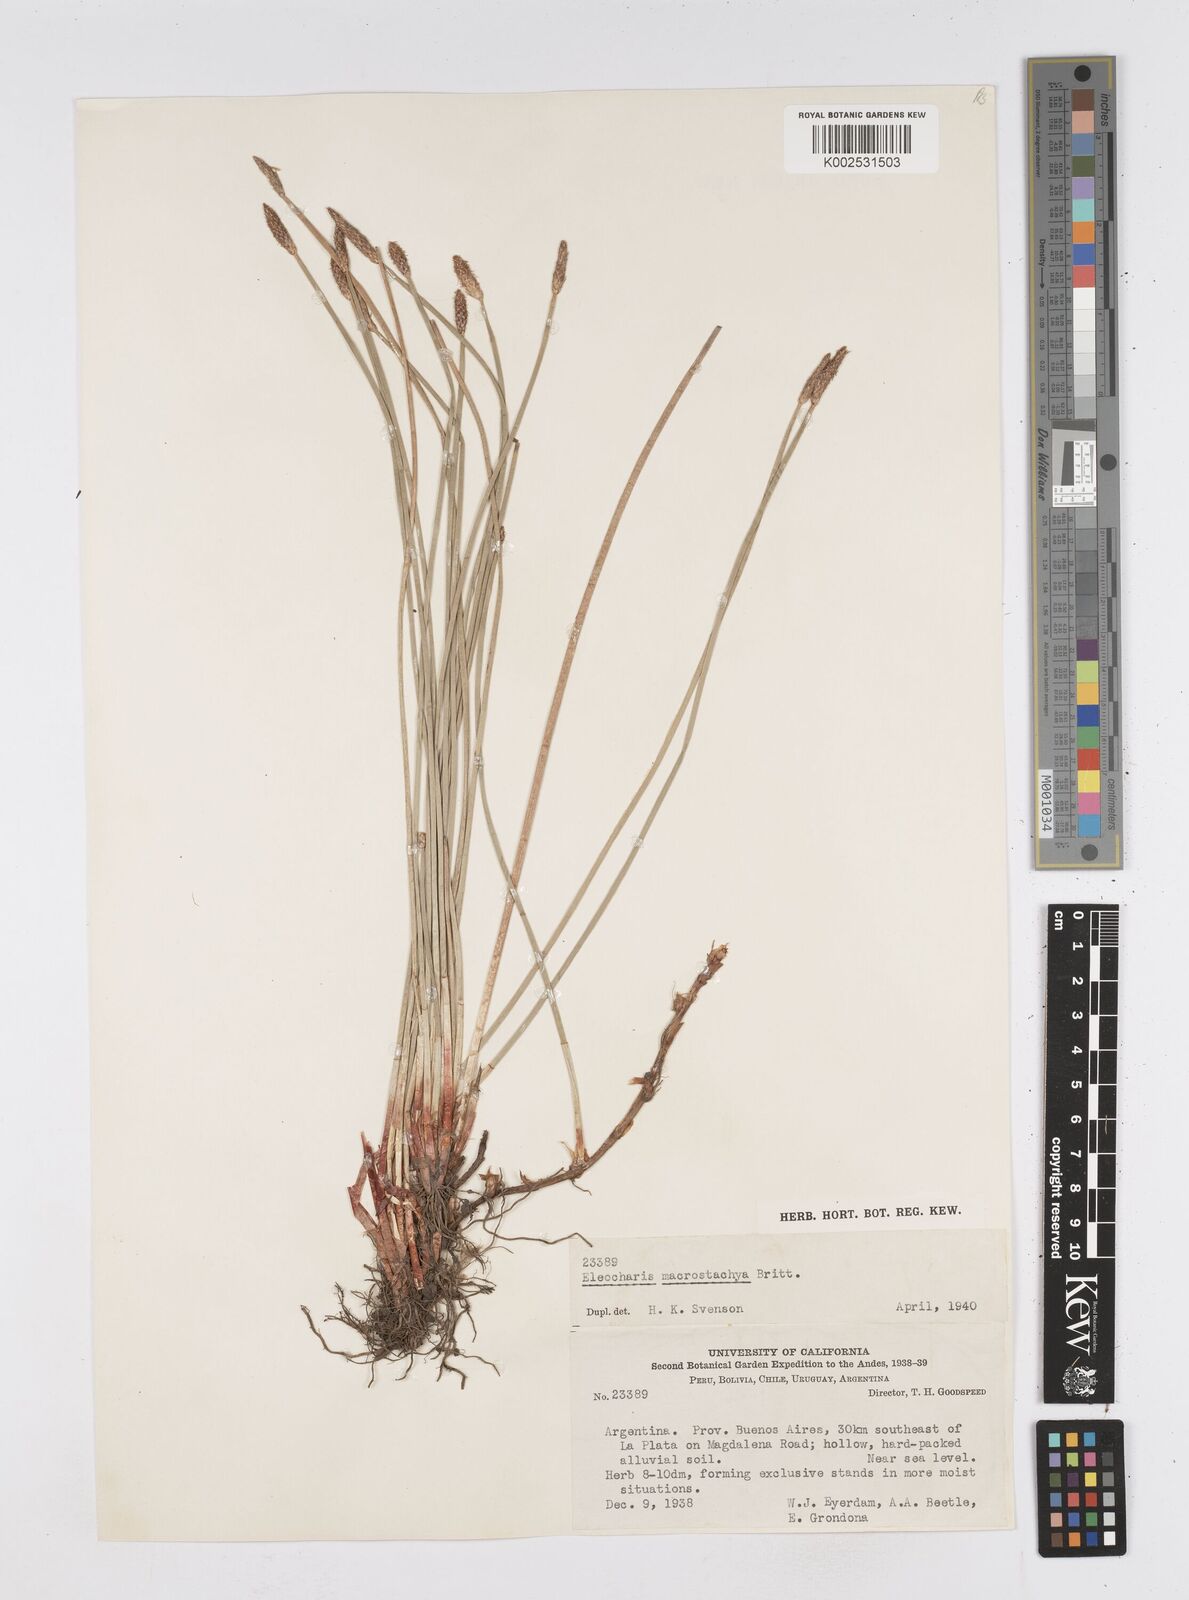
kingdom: Plantae
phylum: Tracheophyta
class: Liliopsida
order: Poales
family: Cyperaceae
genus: Eleocharis
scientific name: Eleocharis macrostachya
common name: Pale spikerush
